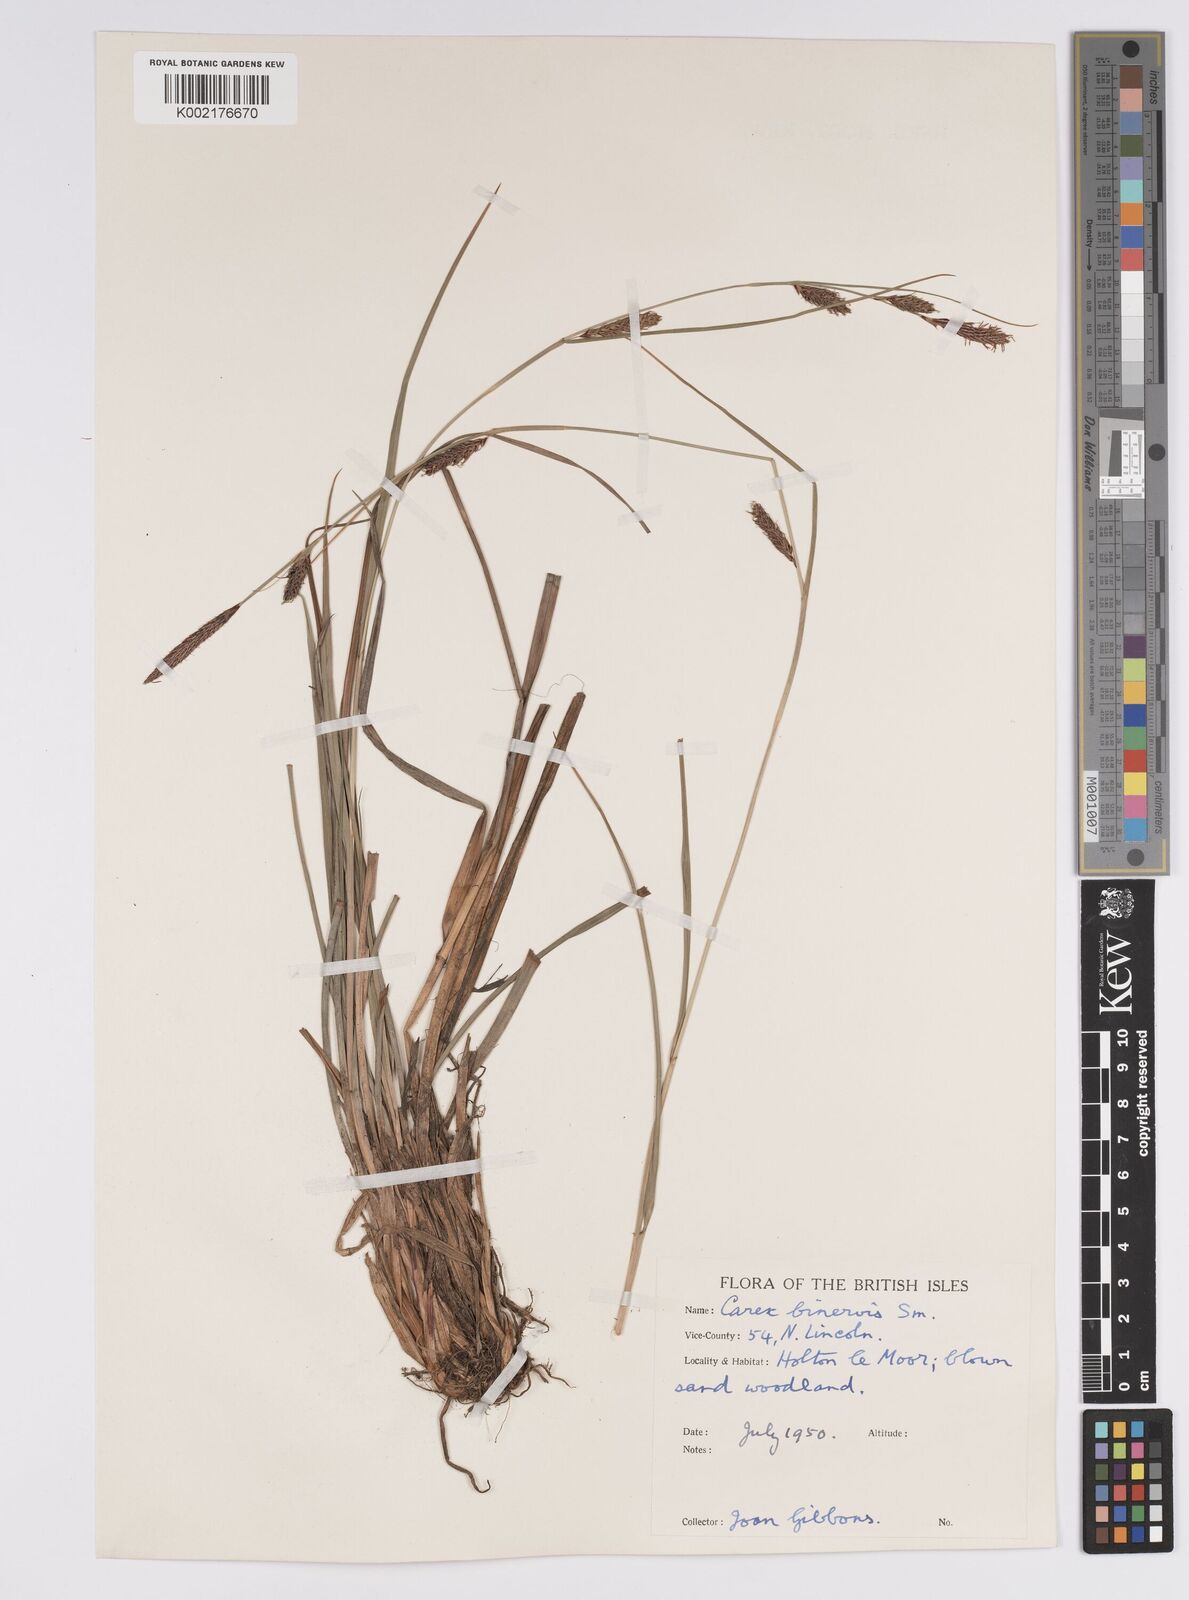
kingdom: Plantae
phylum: Tracheophyta
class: Liliopsida
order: Poales
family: Cyperaceae
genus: Carex
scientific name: Carex binervis
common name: Green-ribbed sedge
